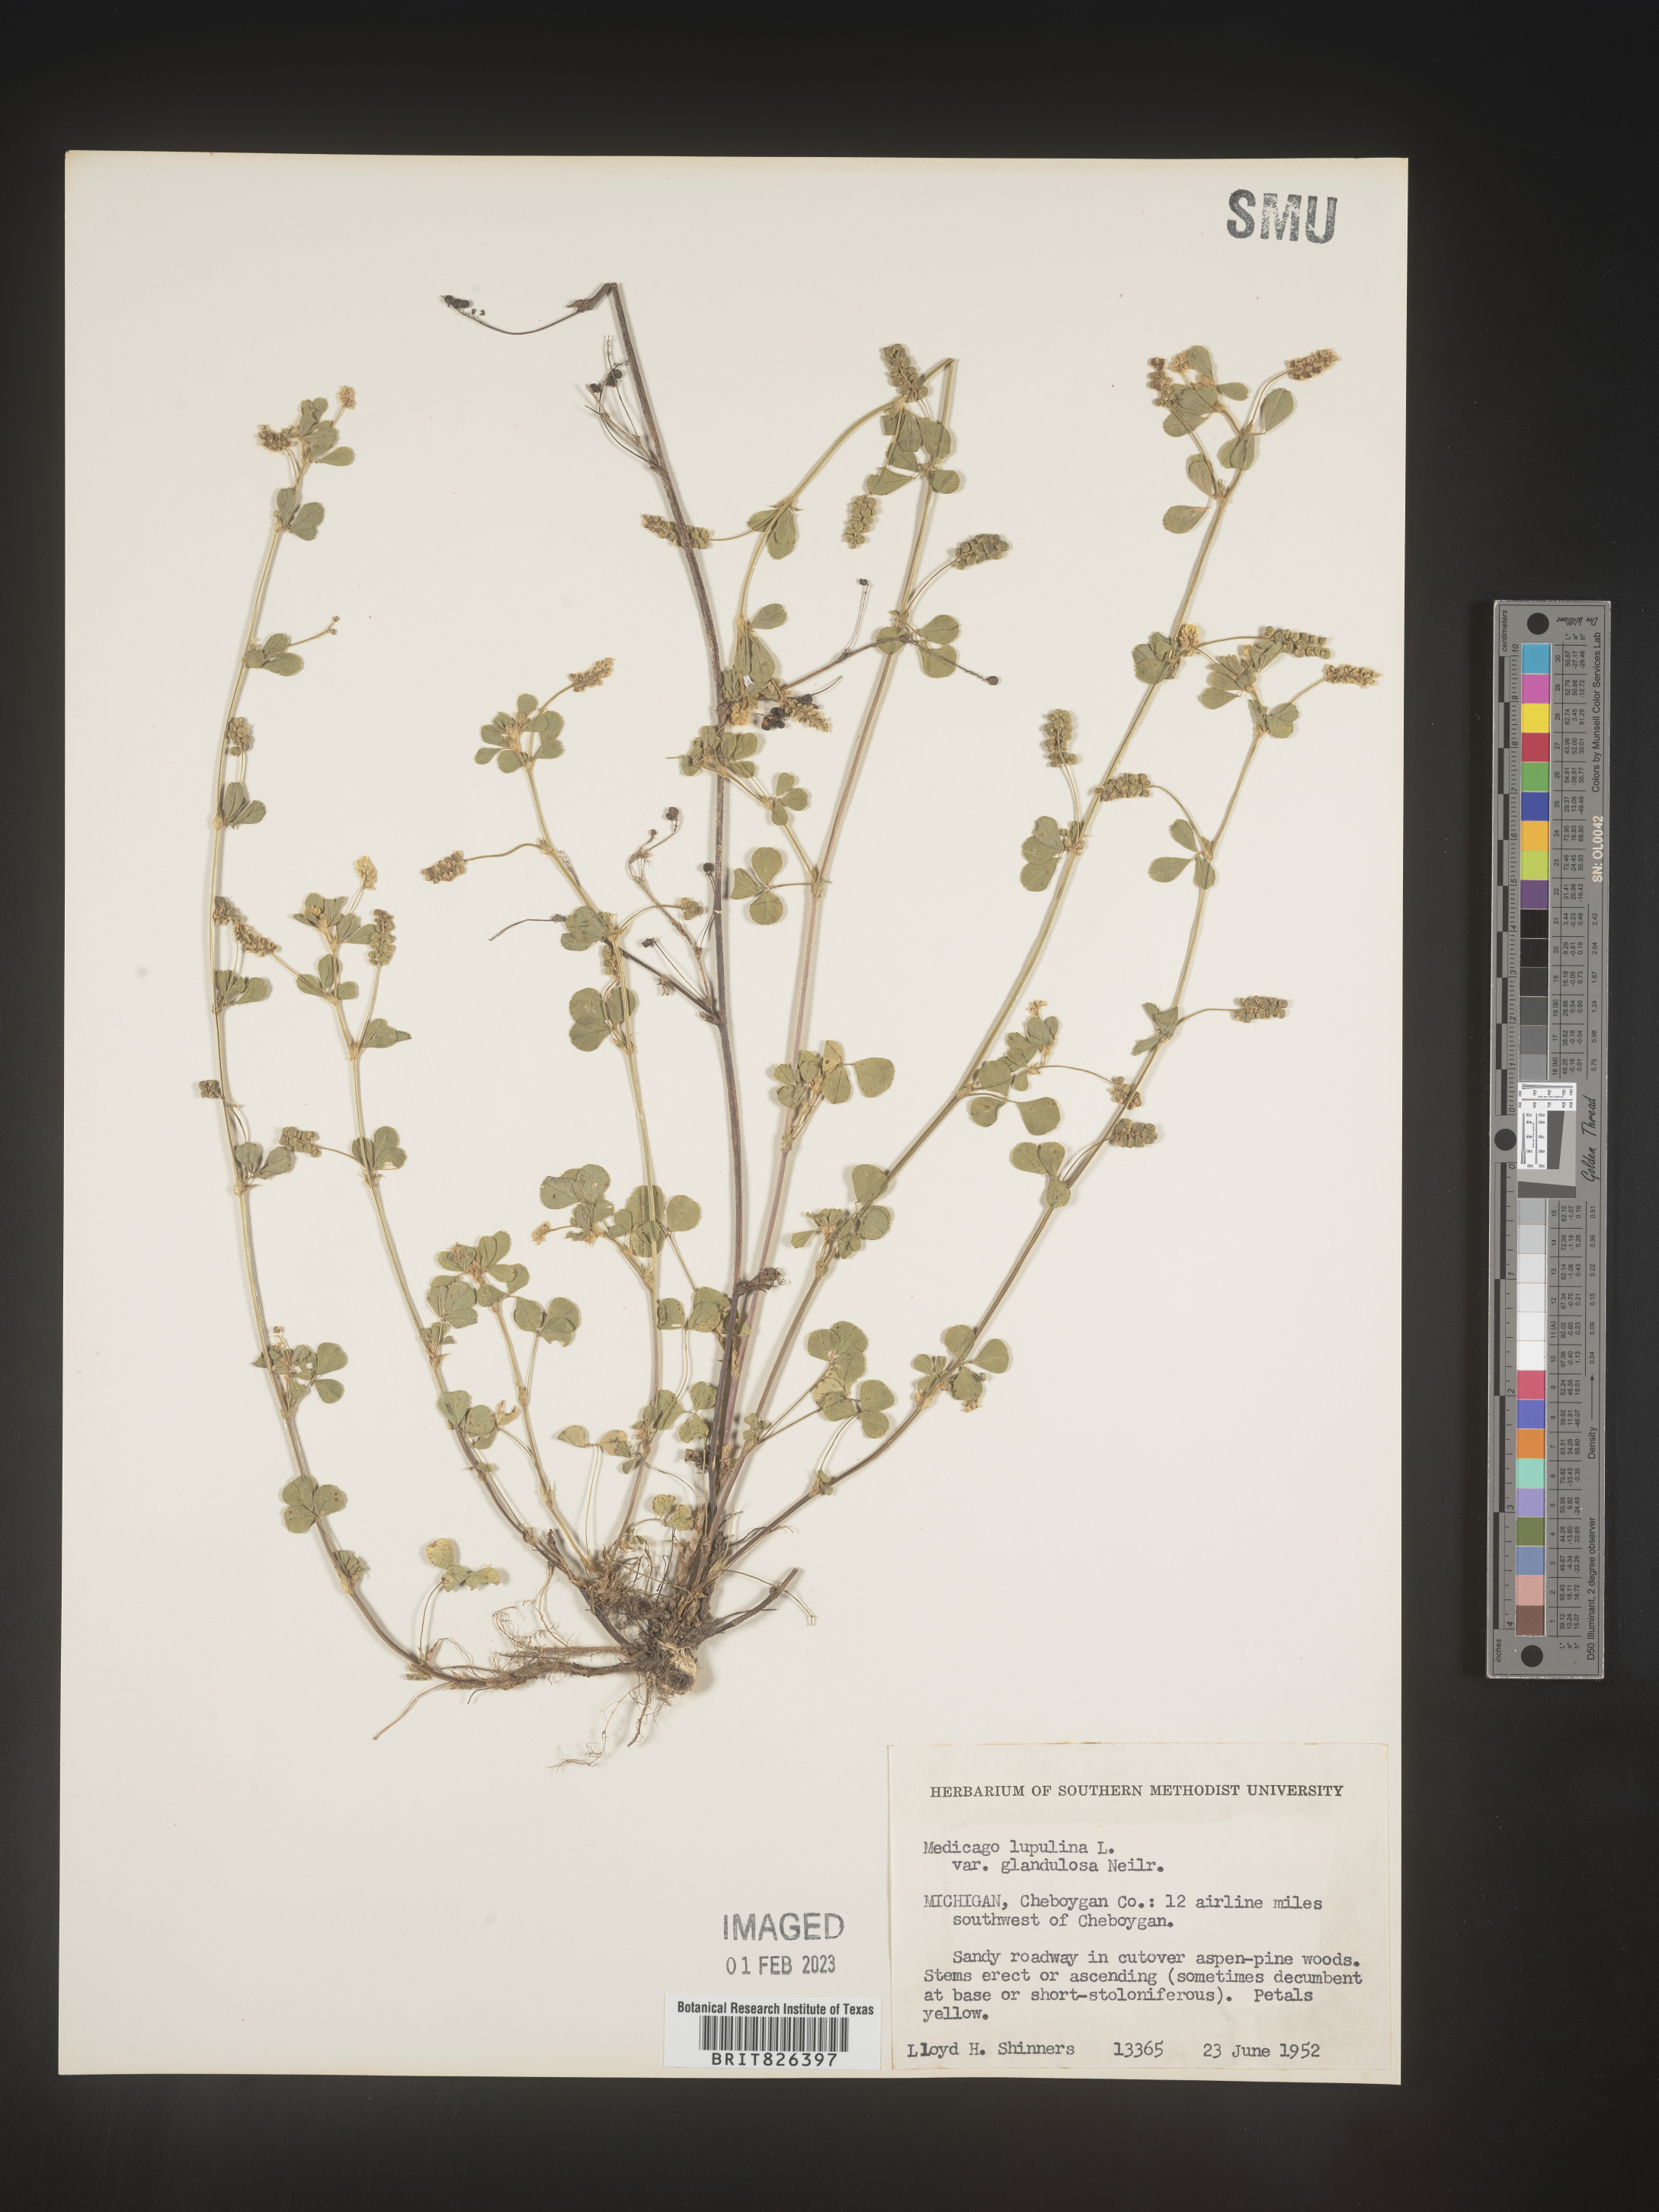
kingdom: Plantae
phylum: Tracheophyta
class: Magnoliopsida
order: Fabales
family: Fabaceae
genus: Medicago
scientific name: Medicago lupulina
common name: Black medick
